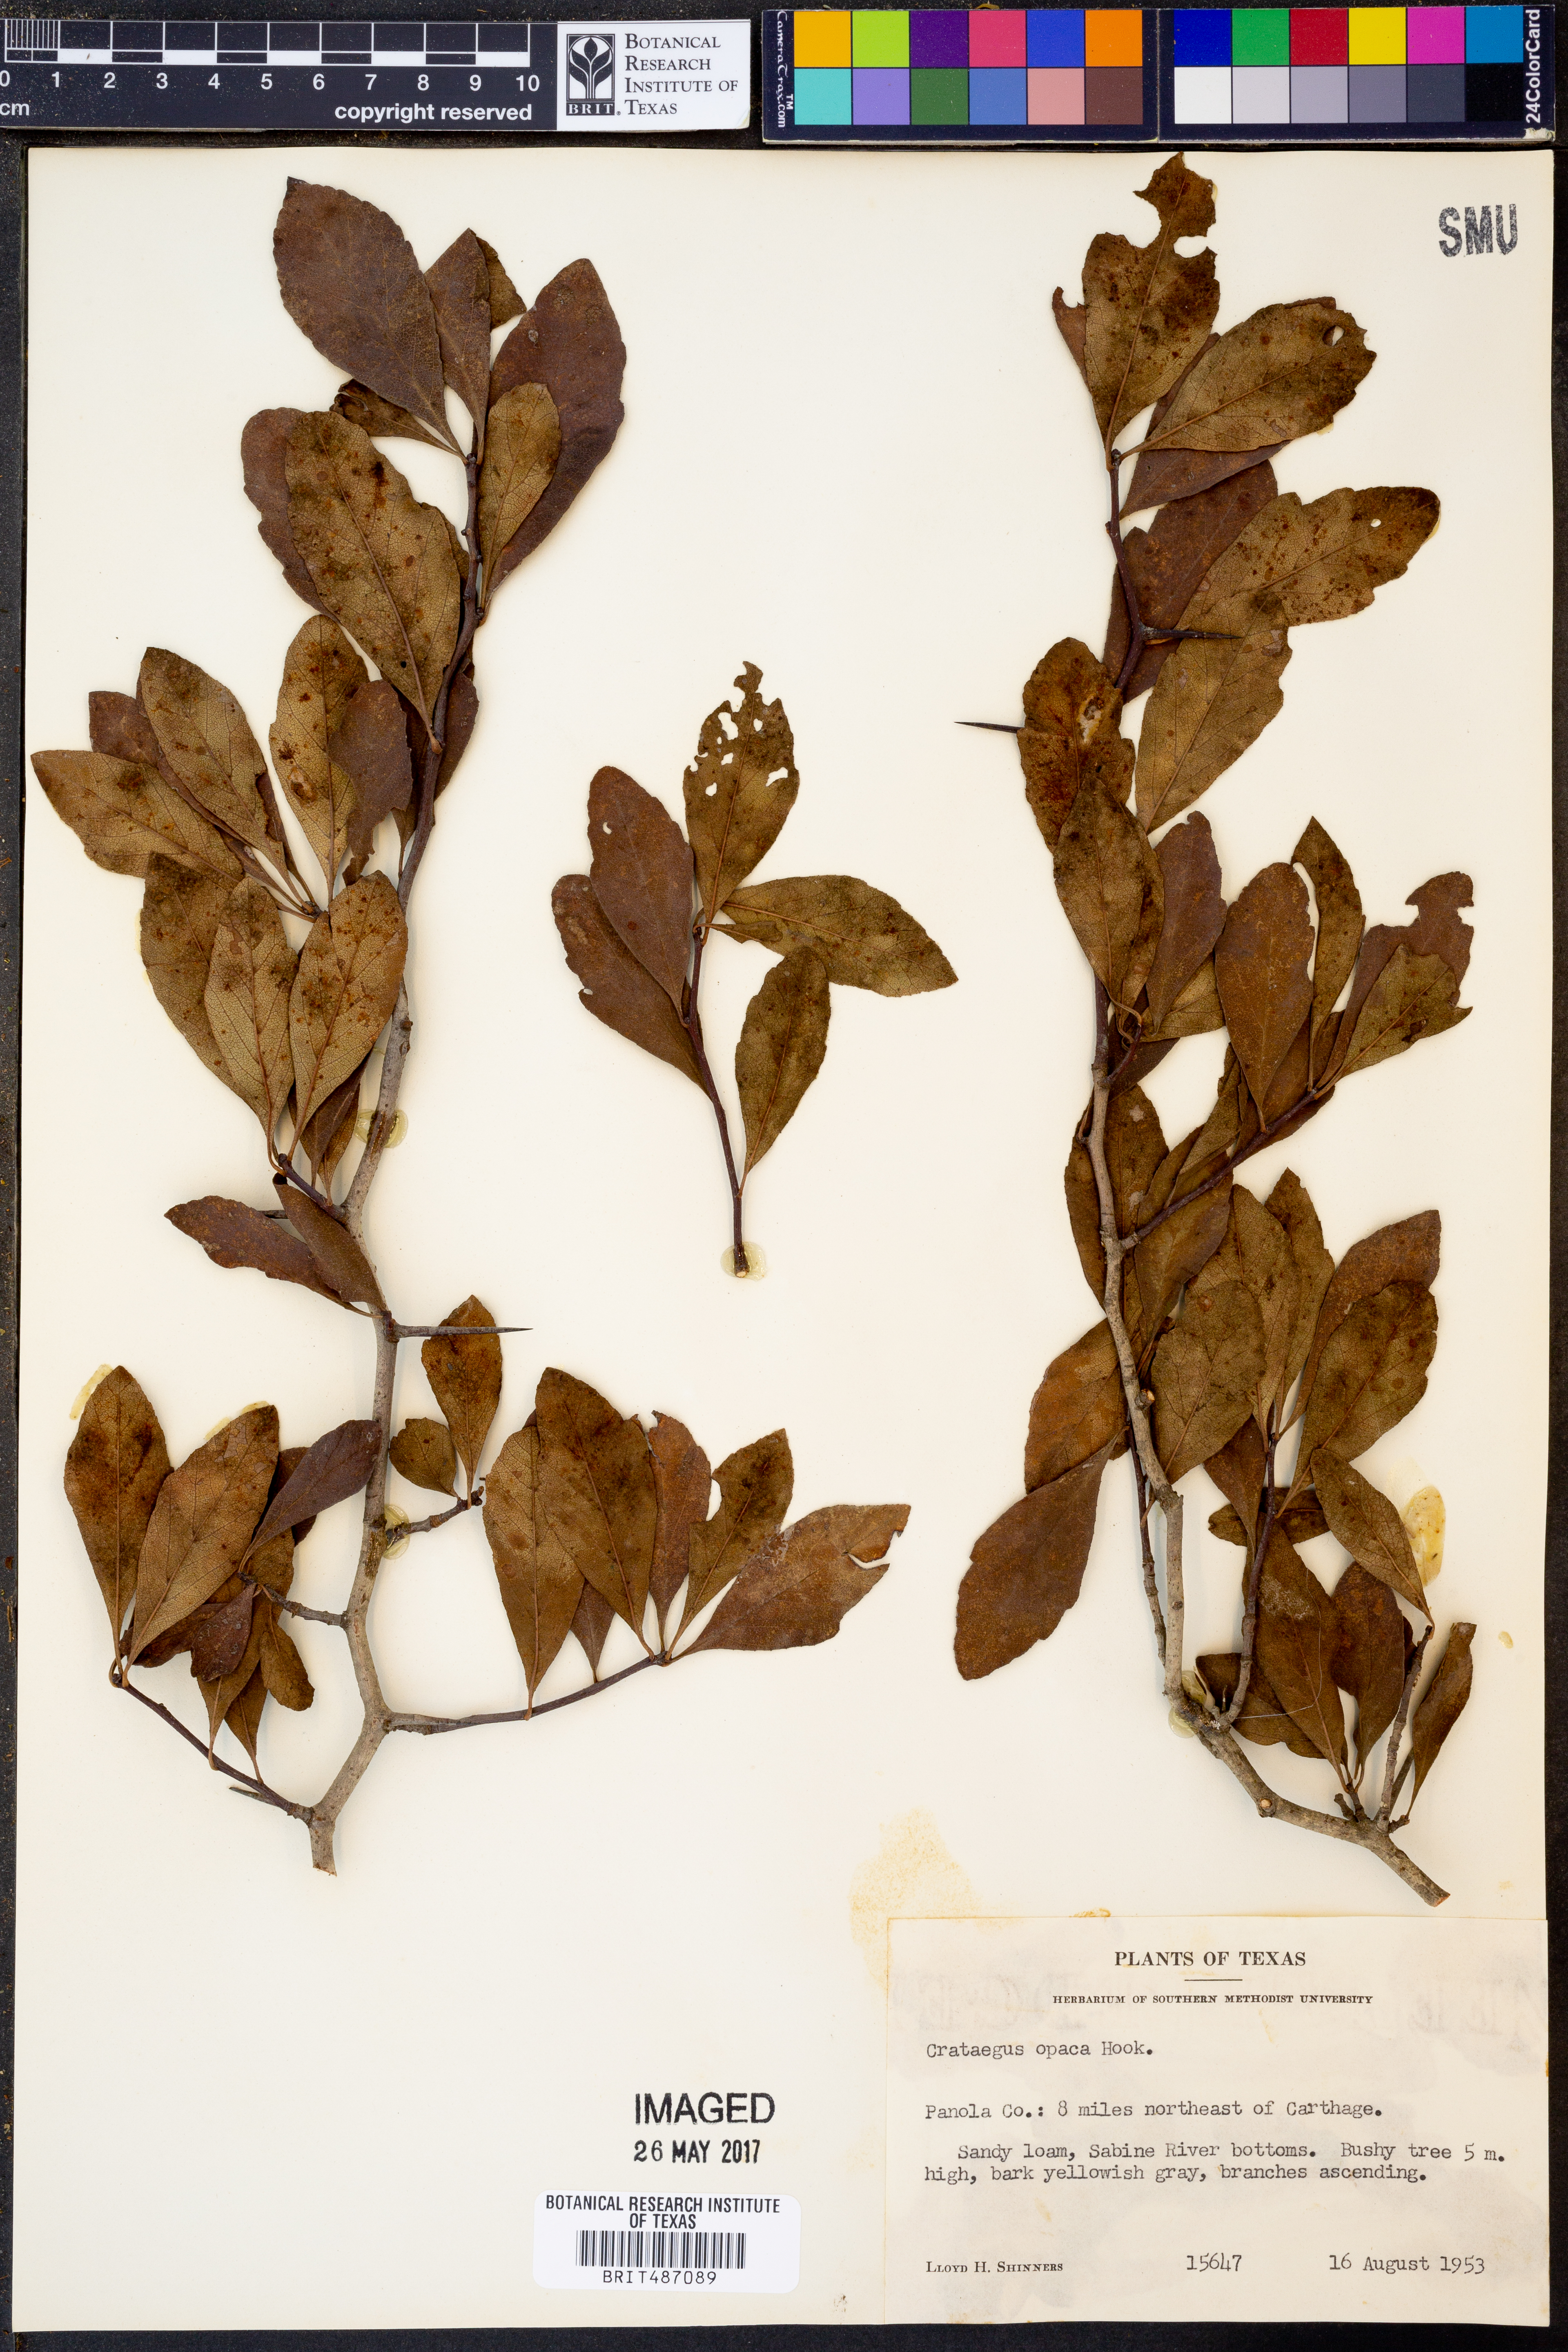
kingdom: Plantae
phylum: Tracheophyta
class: Magnoliopsida
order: Rosales
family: Rosaceae
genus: Crataegus
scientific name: Crataegus opaca
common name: Apple haw
